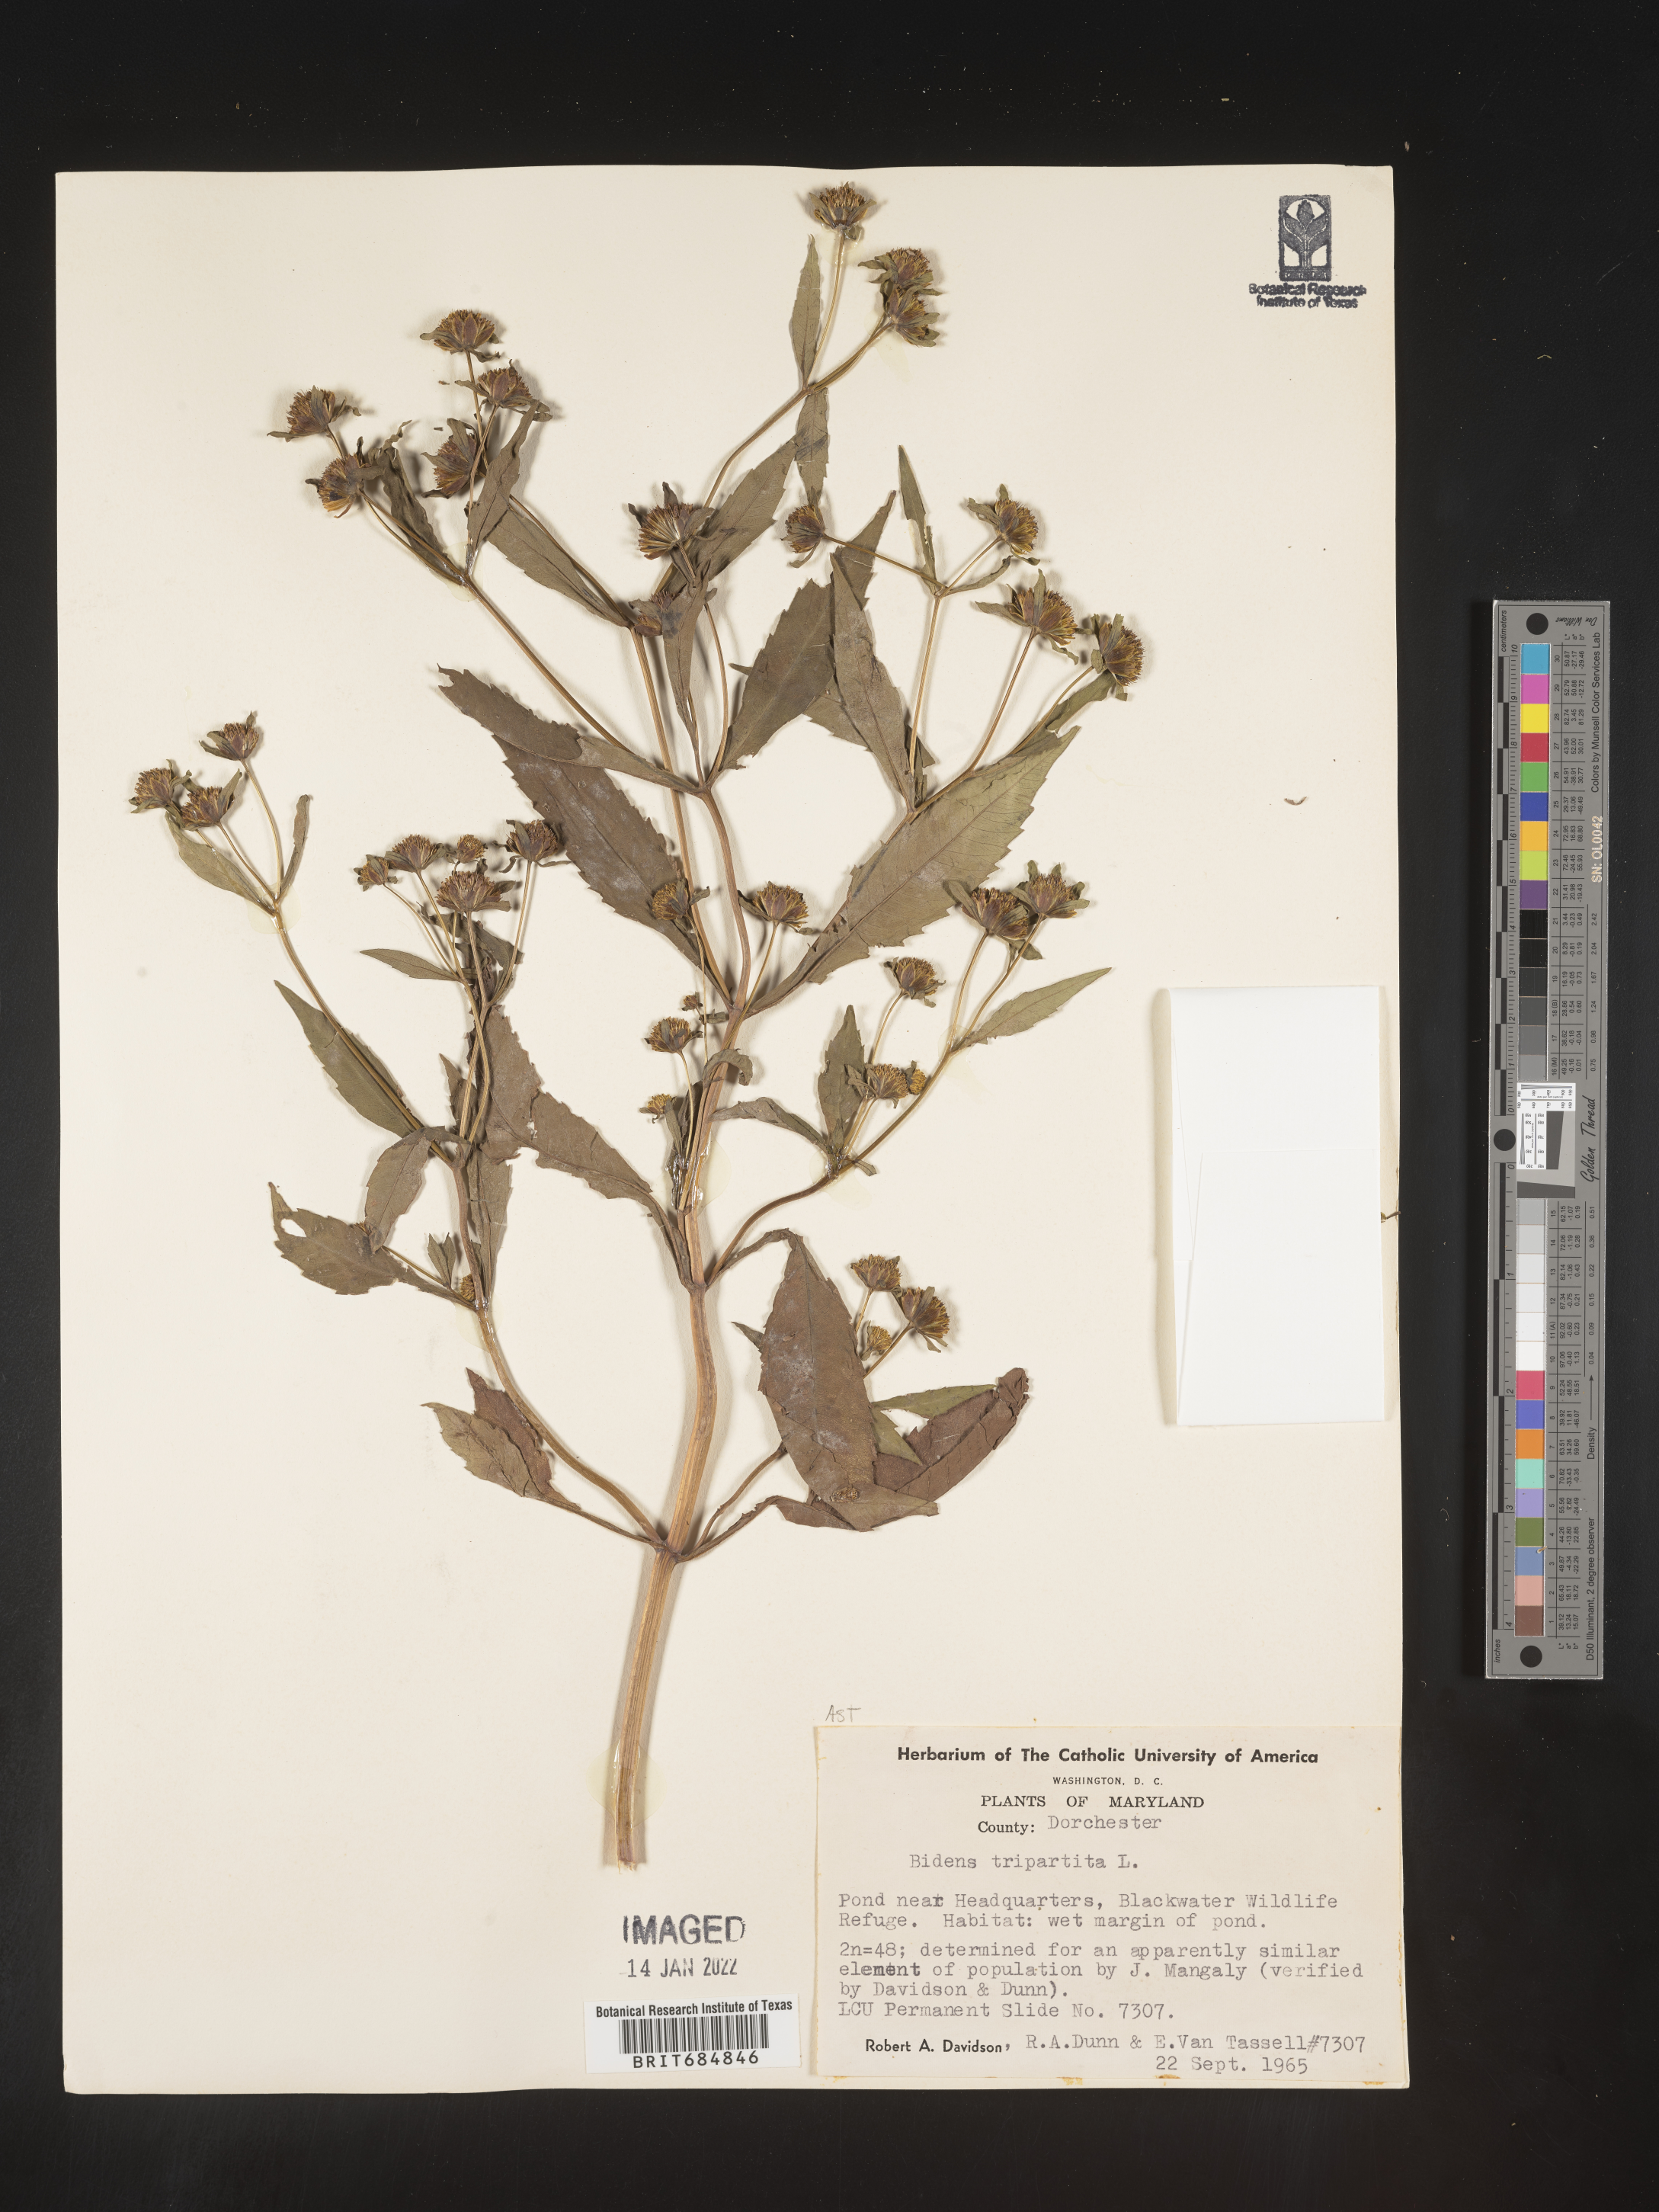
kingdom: Plantae
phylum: Tracheophyta
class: Magnoliopsida
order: Asterales
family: Asteraceae
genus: Bidens
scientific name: Bidens tripartita
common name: Trifid bur-marigold
